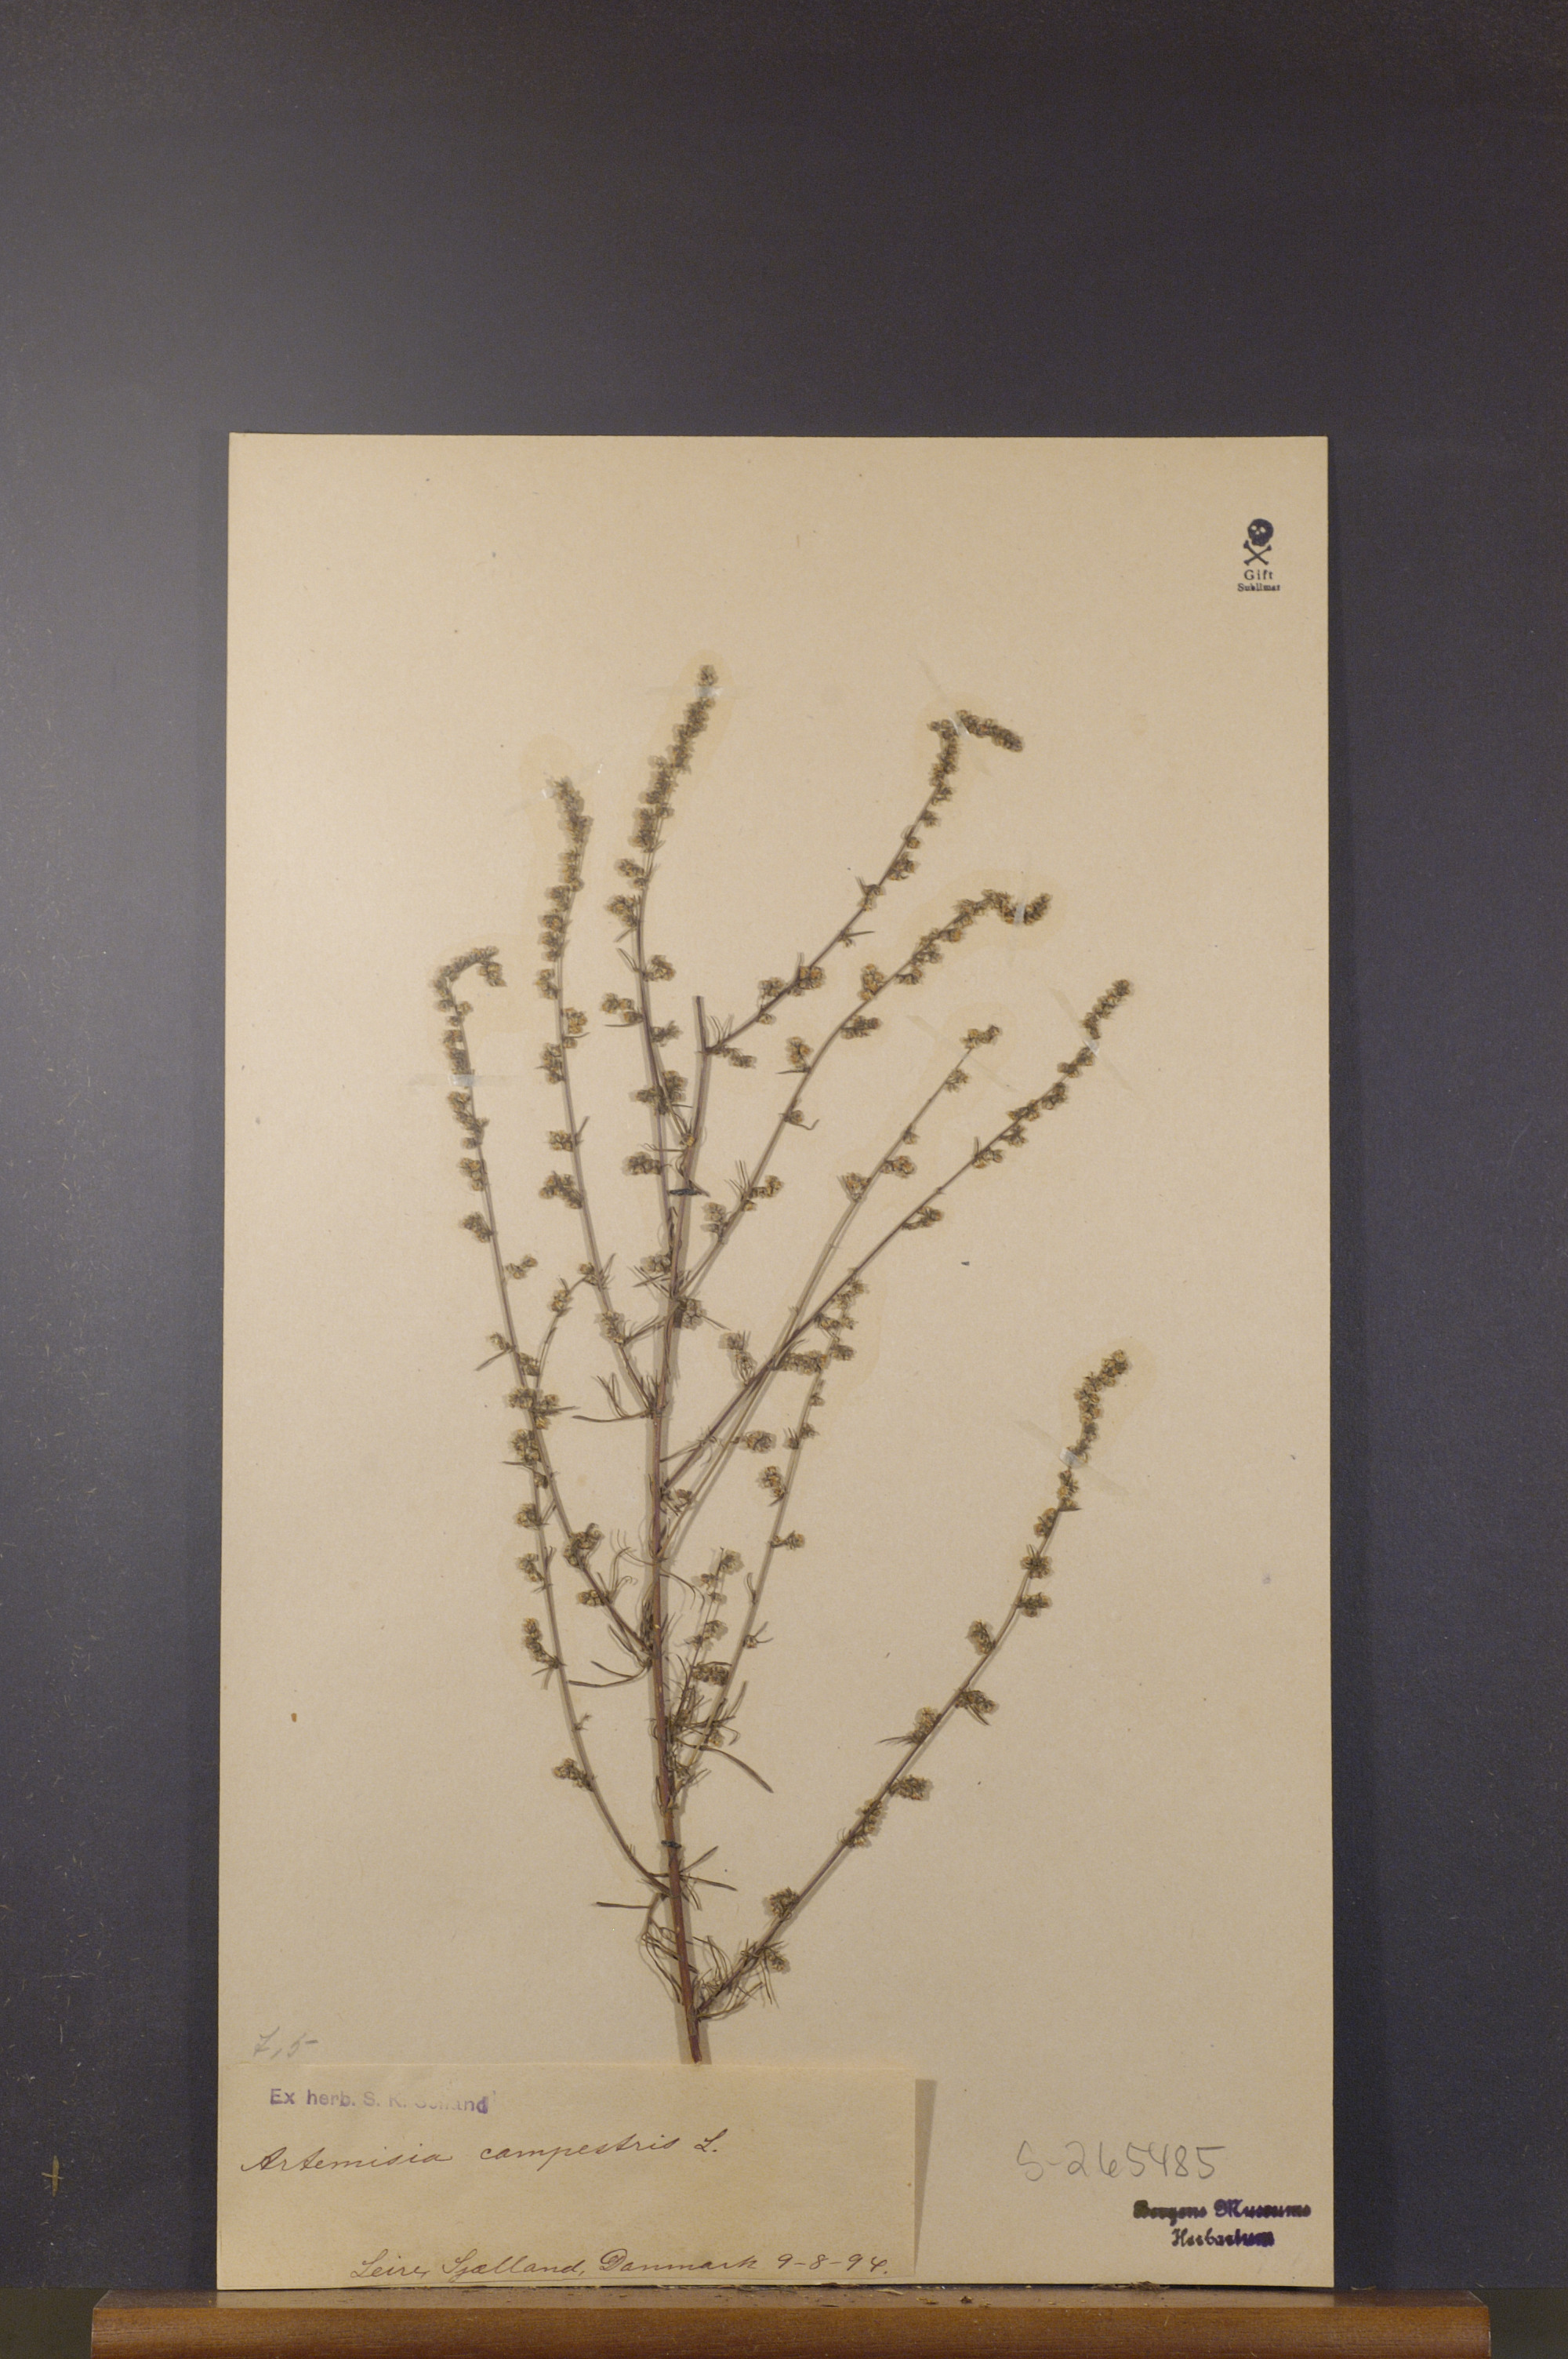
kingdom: Plantae
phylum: Tracheophyta
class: Magnoliopsida
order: Asterales
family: Asteraceae
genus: Artemisia
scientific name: Artemisia campestris
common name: Field wormwood
